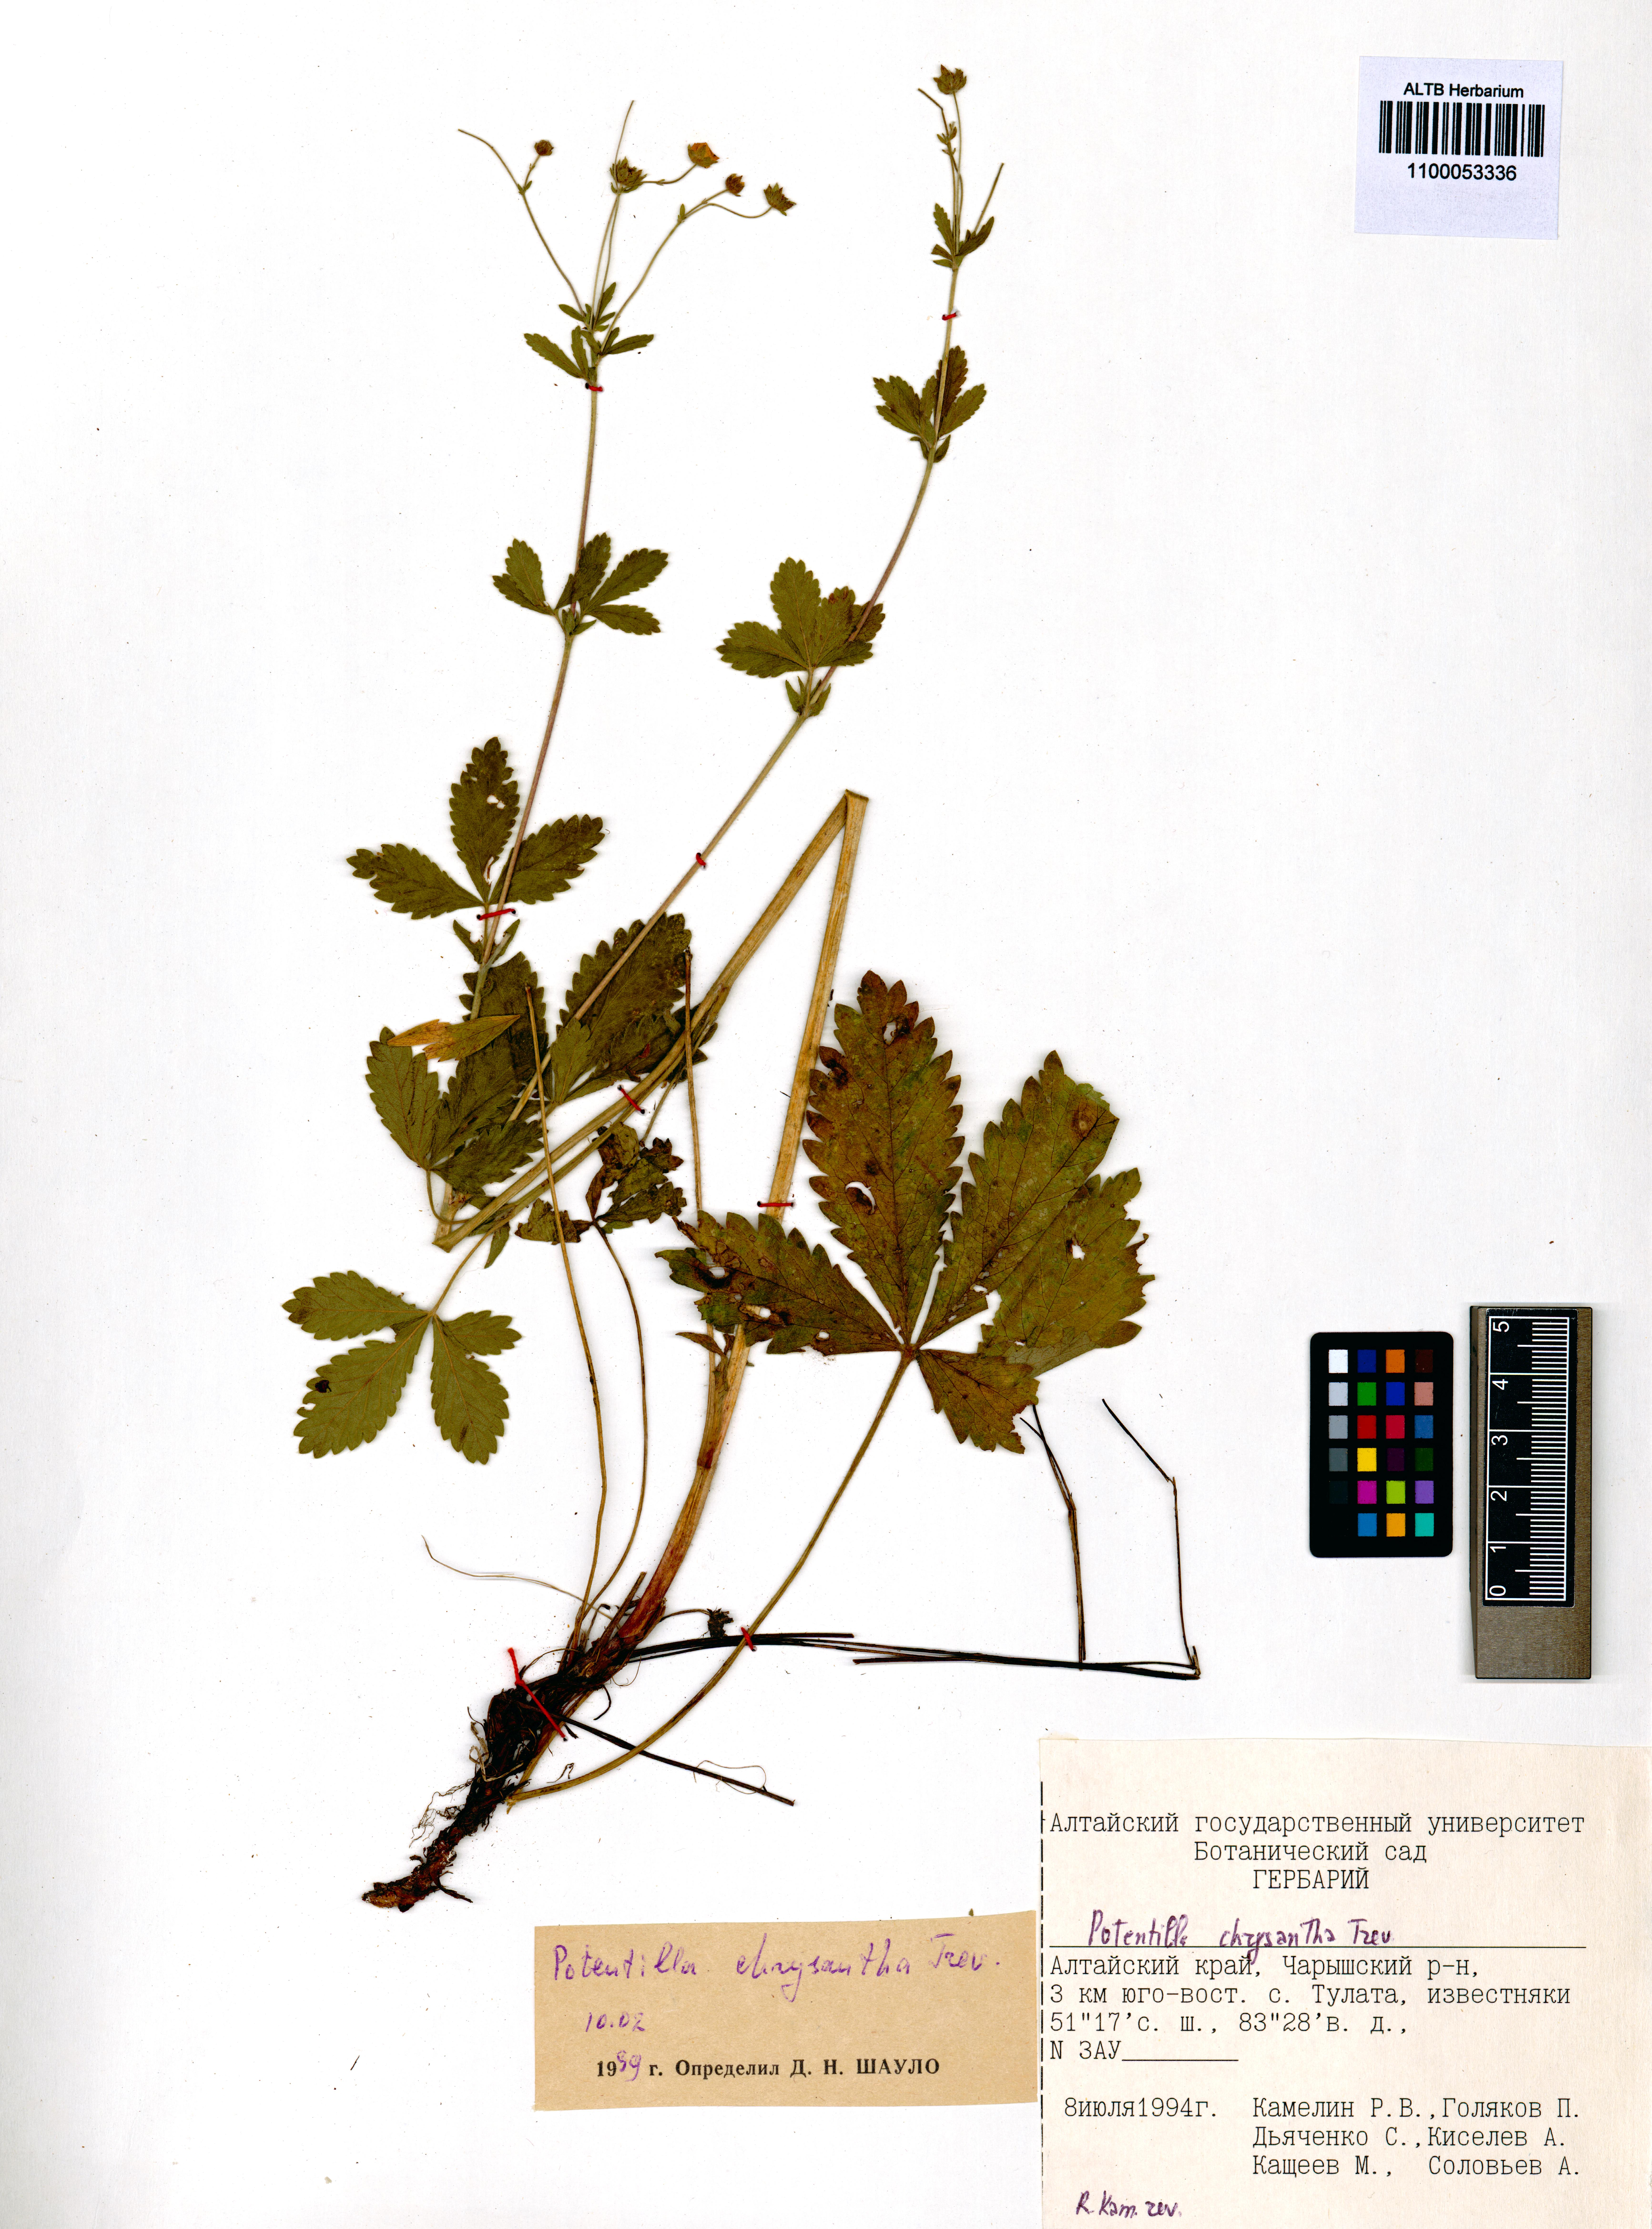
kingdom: Plantae
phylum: Tracheophyta
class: Magnoliopsida
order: Rosales
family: Rosaceae
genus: Potentilla
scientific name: Potentilla chrysantha
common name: Thuringian cinquefoil
